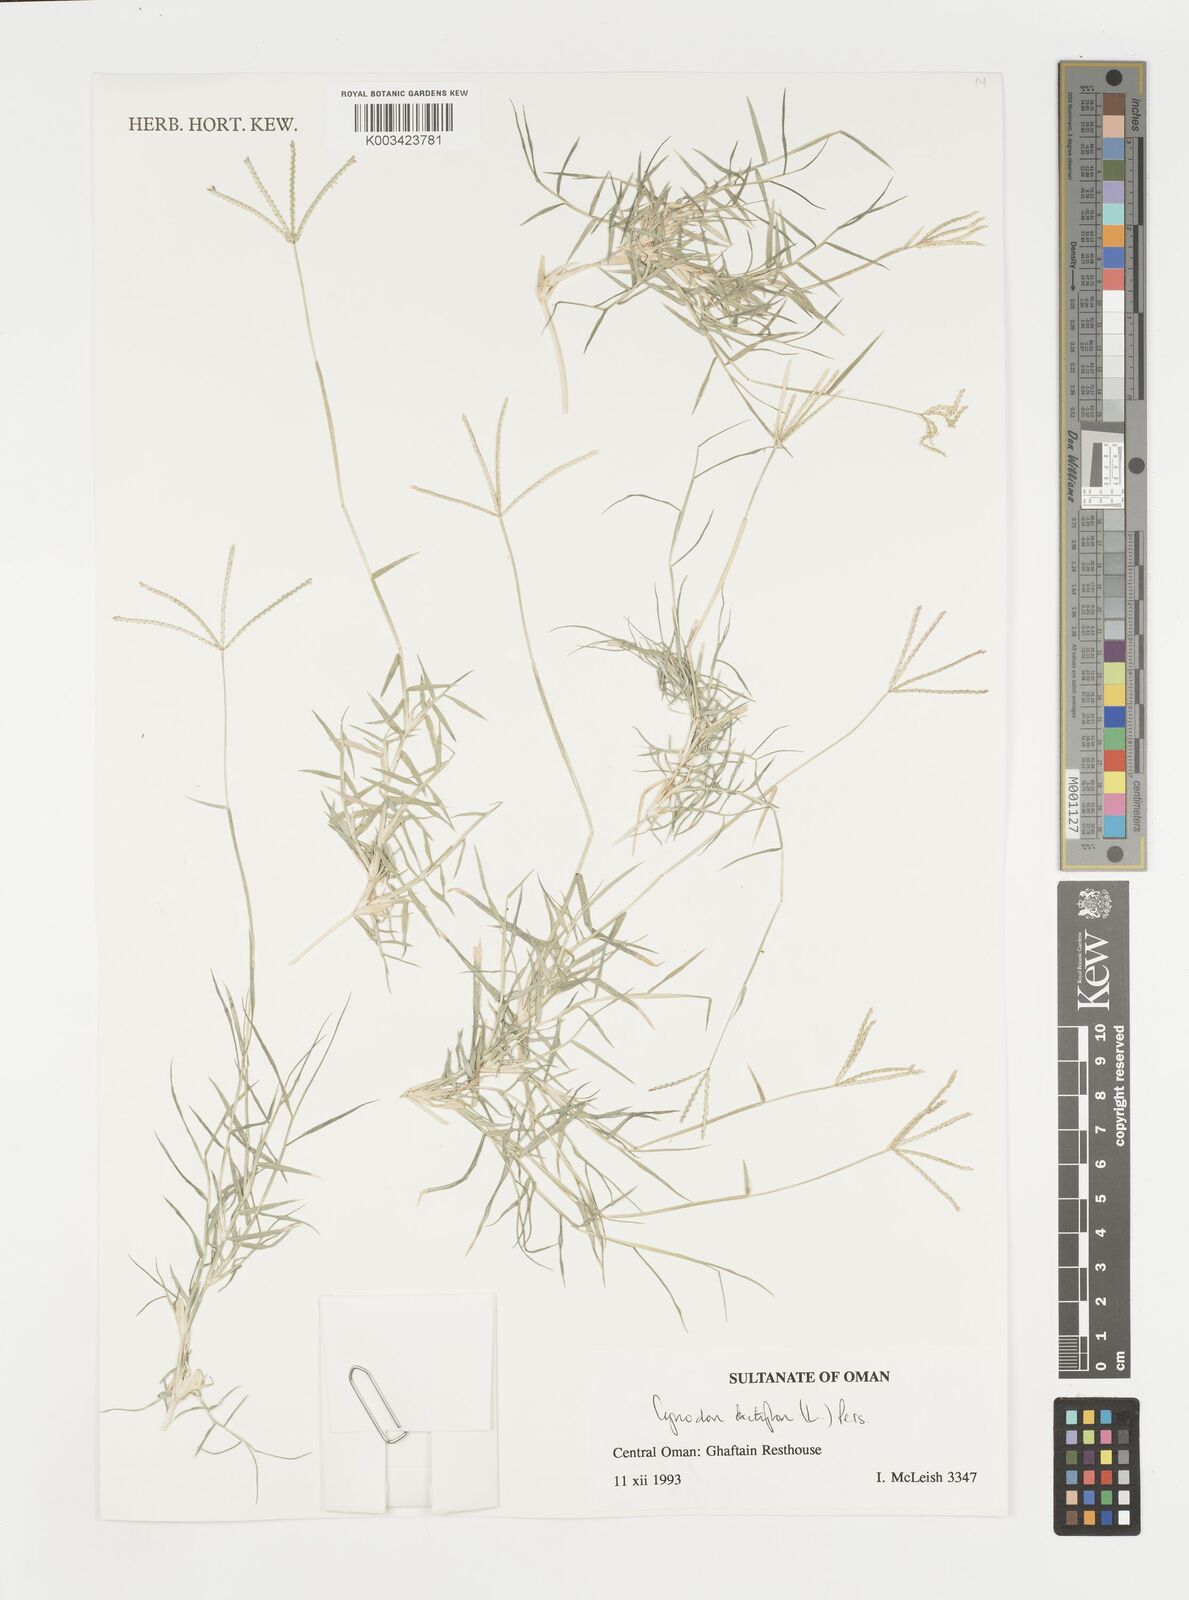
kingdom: Plantae
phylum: Tracheophyta
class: Liliopsida
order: Poales
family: Poaceae
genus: Cynodon
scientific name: Cynodon dactylon
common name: Bermuda grass
